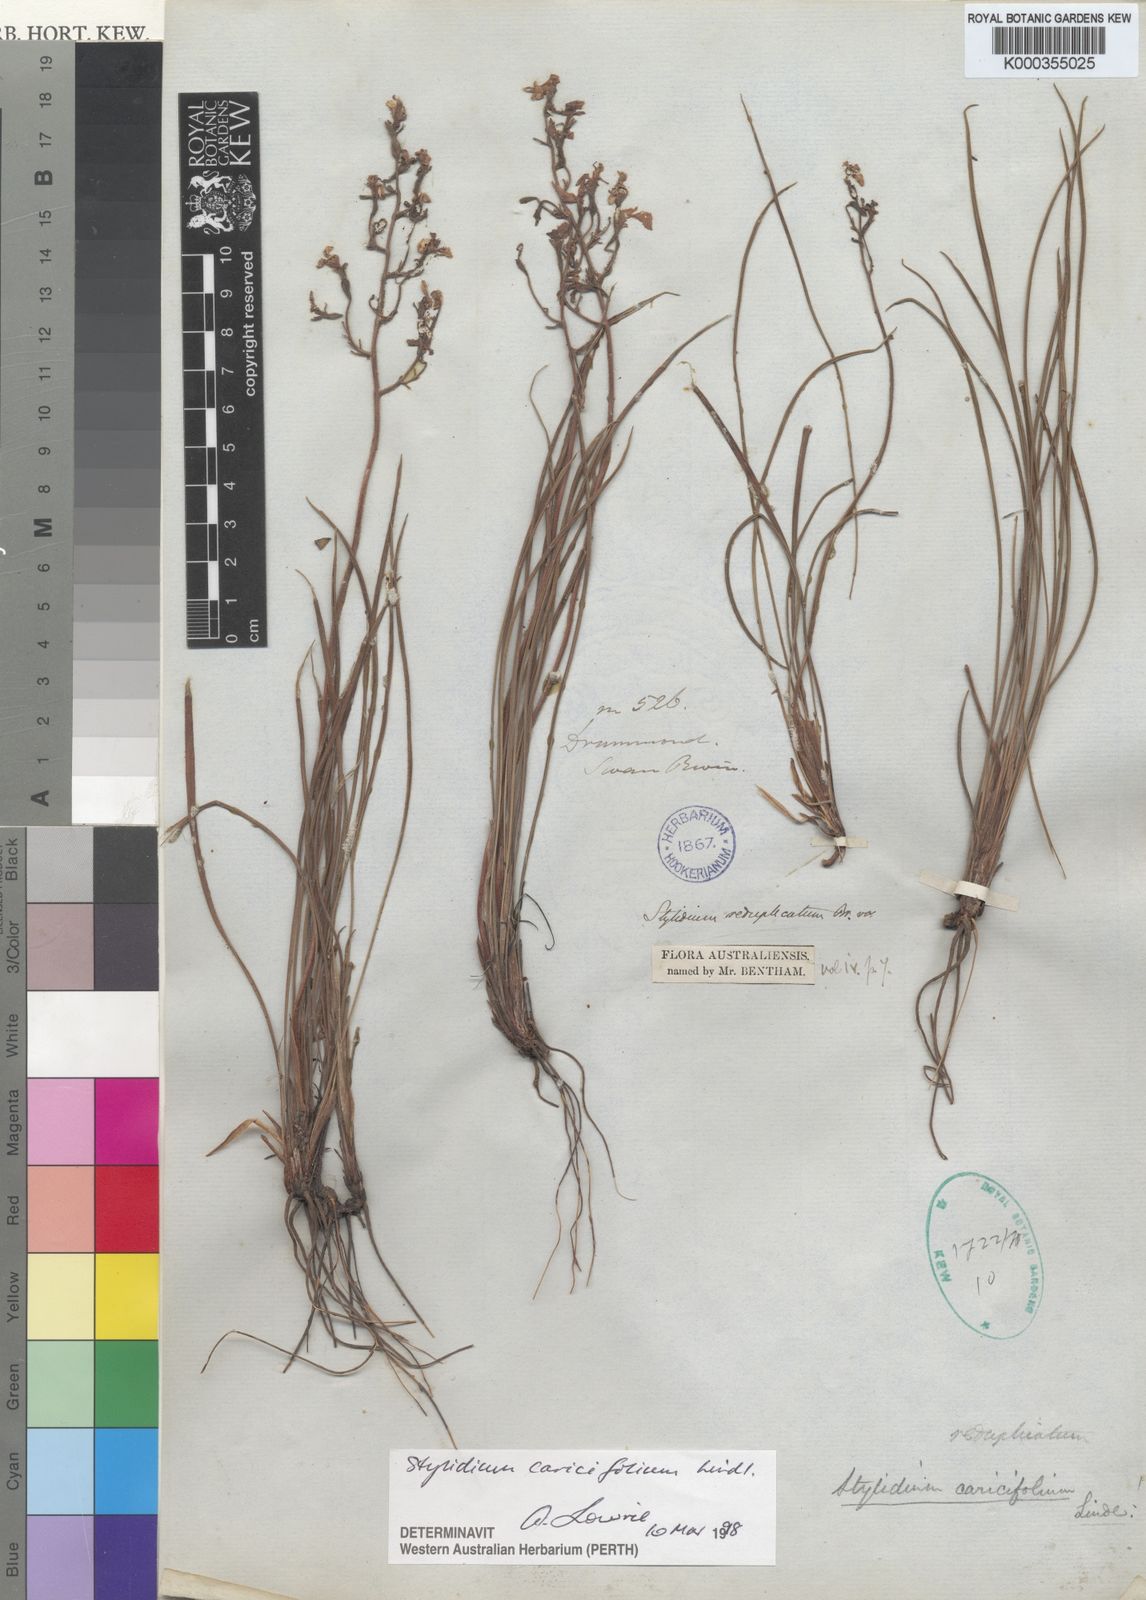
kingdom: Plantae
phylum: Tracheophyta
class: Magnoliopsida
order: Asterales
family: Stylidiaceae
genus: Stylidium
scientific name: Stylidium caricifolium
